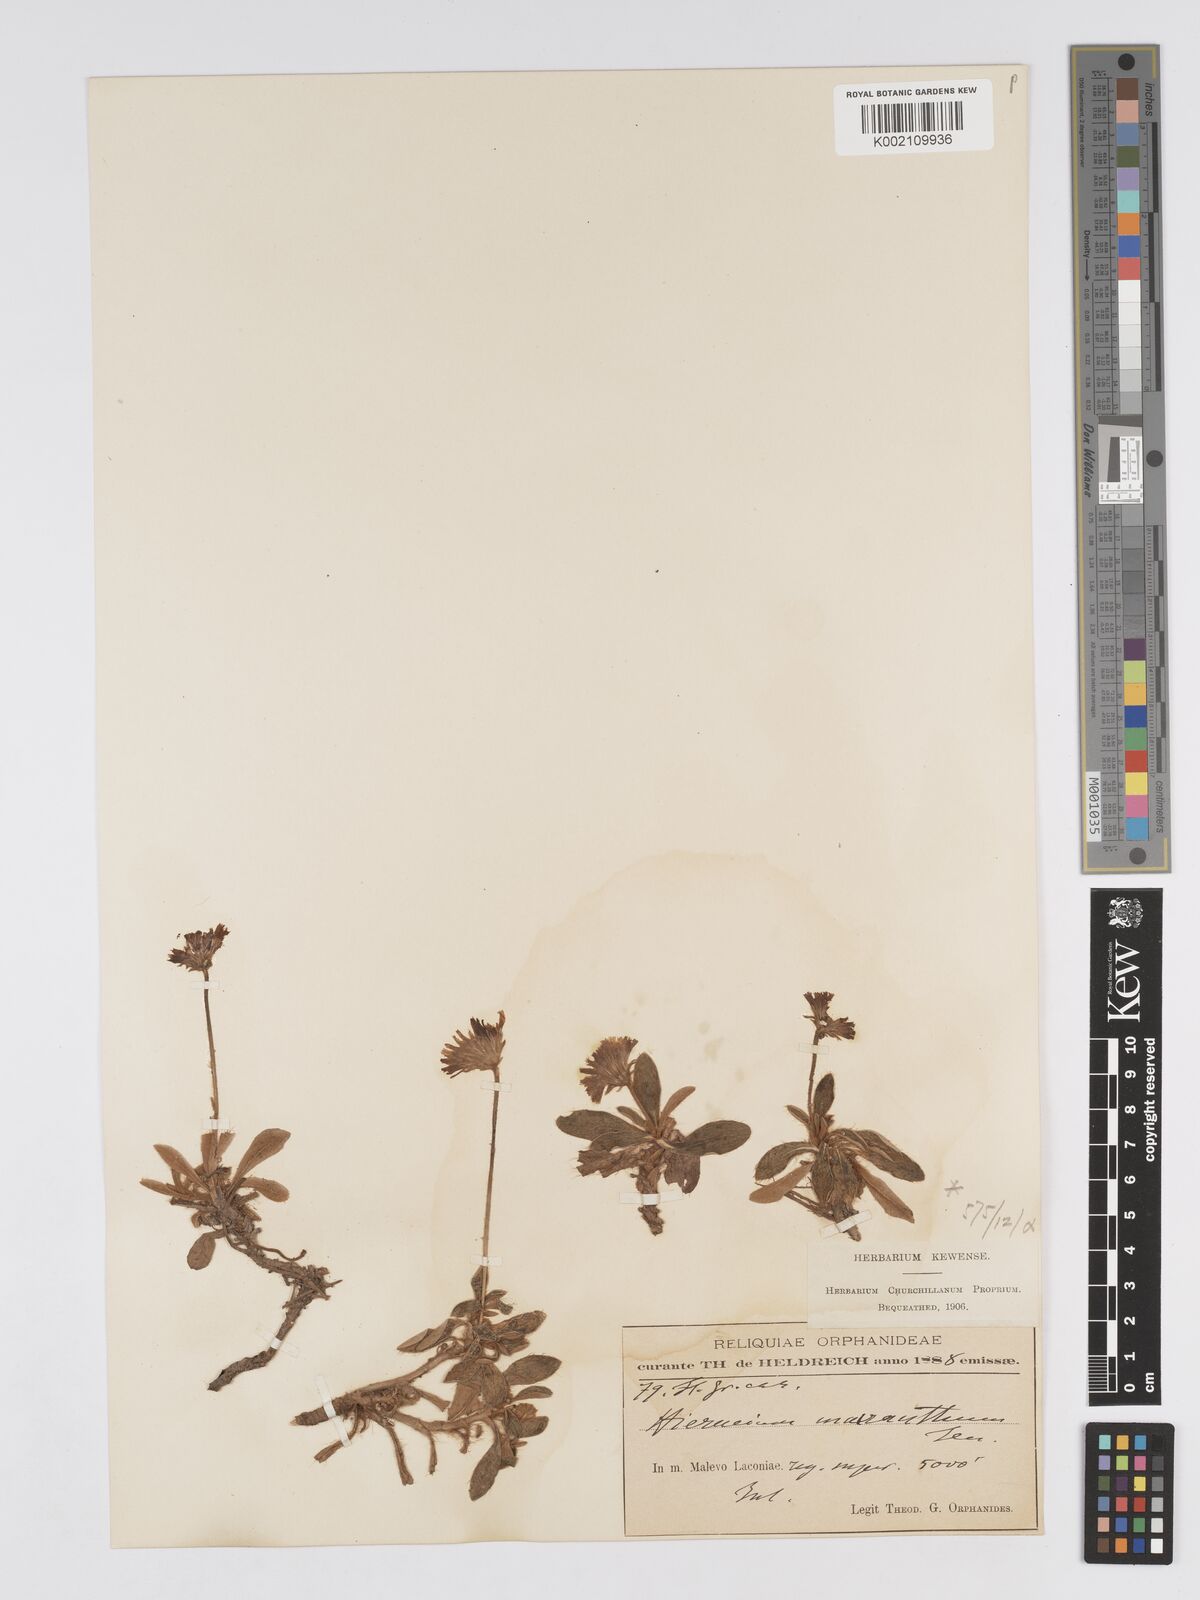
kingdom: Plantae
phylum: Tracheophyta
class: Magnoliopsida
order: Asterales
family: Asteraceae
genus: Pilosella
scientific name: Pilosella hoppeana
